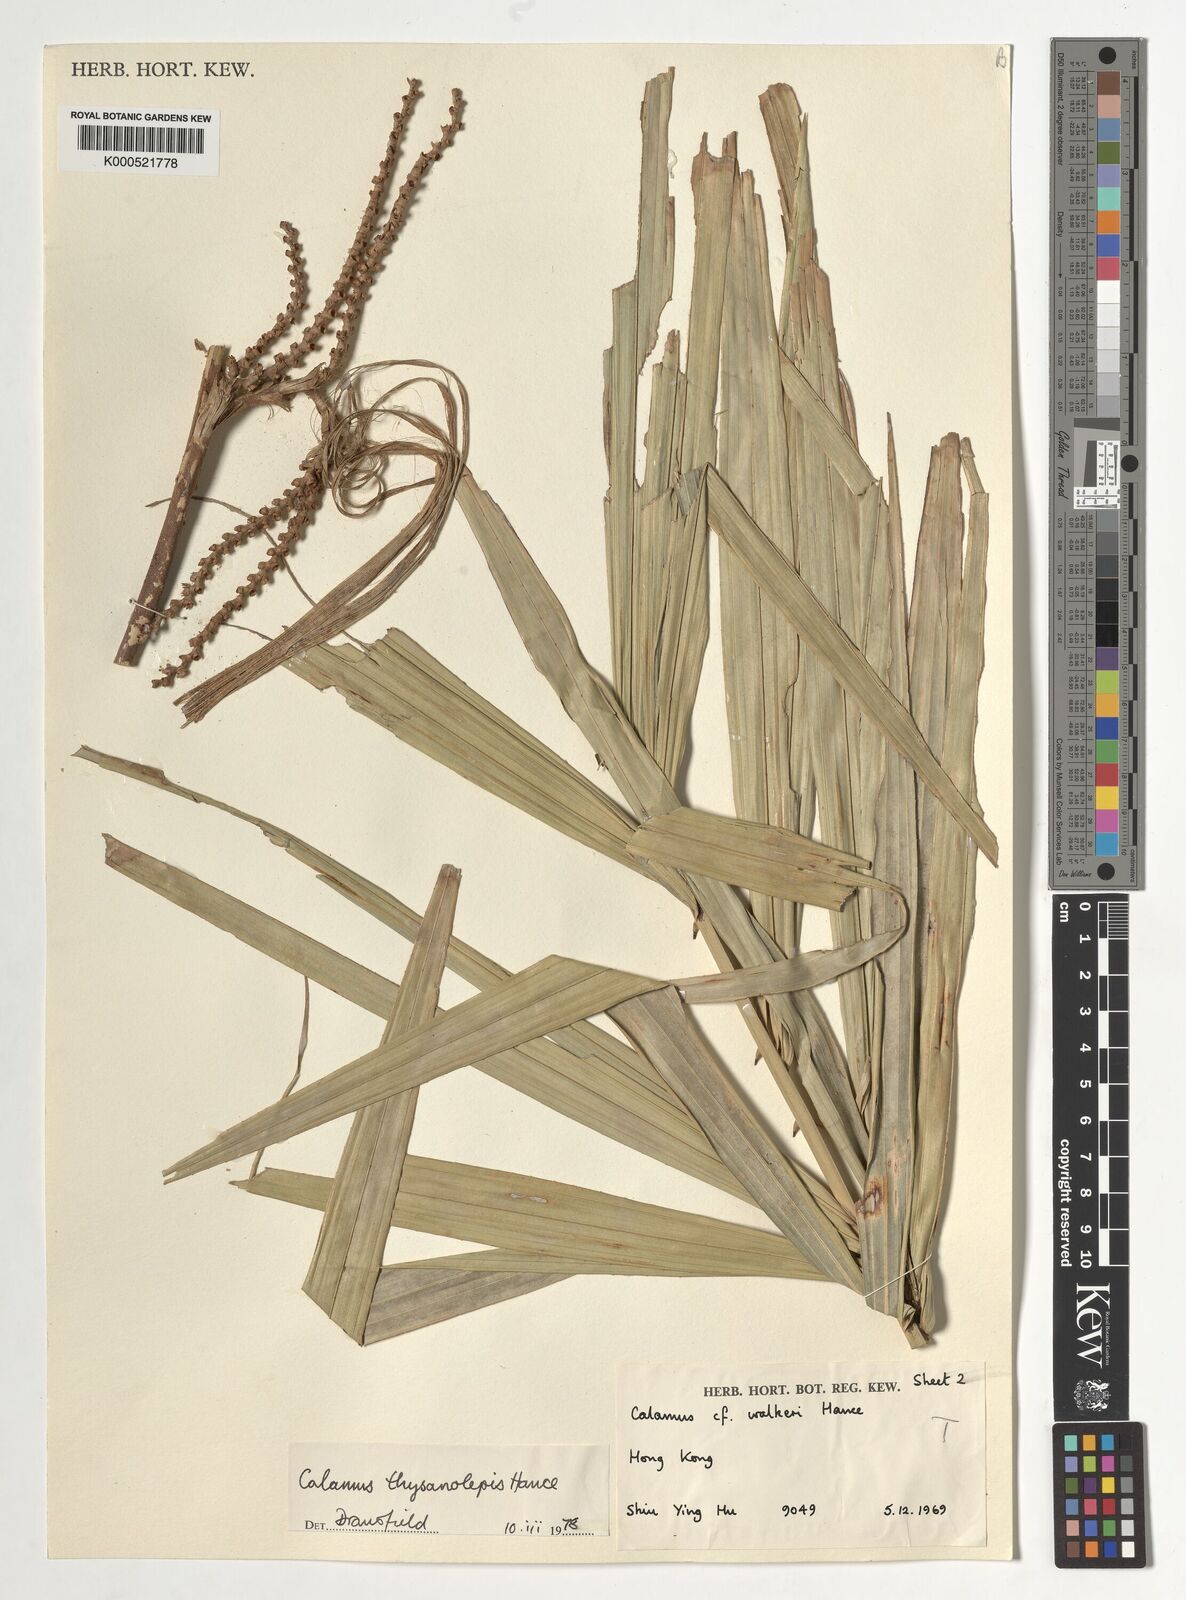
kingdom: Plantae
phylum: Tracheophyta
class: Liliopsida
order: Arecales
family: Arecaceae
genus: Calamus
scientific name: Calamus thysanolepis
